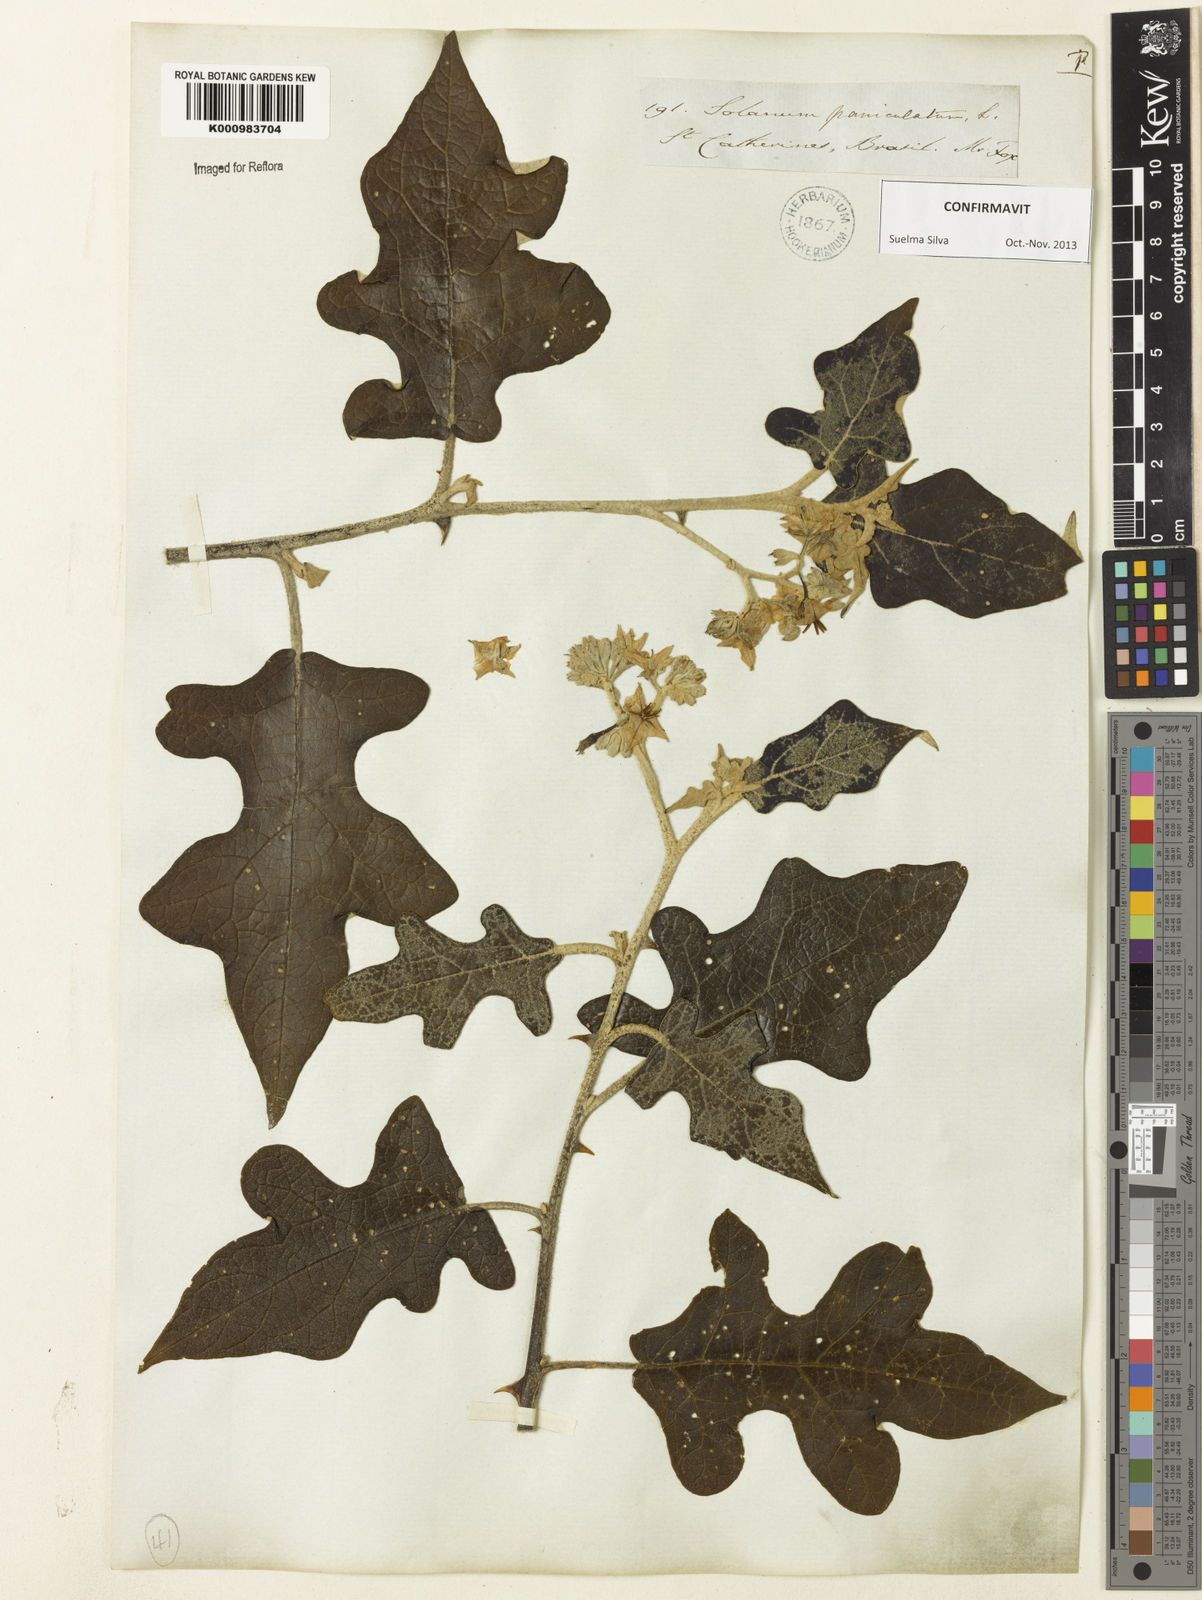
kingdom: Plantae
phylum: Tracheophyta
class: Magnoliopsida
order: Solanales
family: Solanaceae
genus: Solanum
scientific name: Solanum paniculatum
